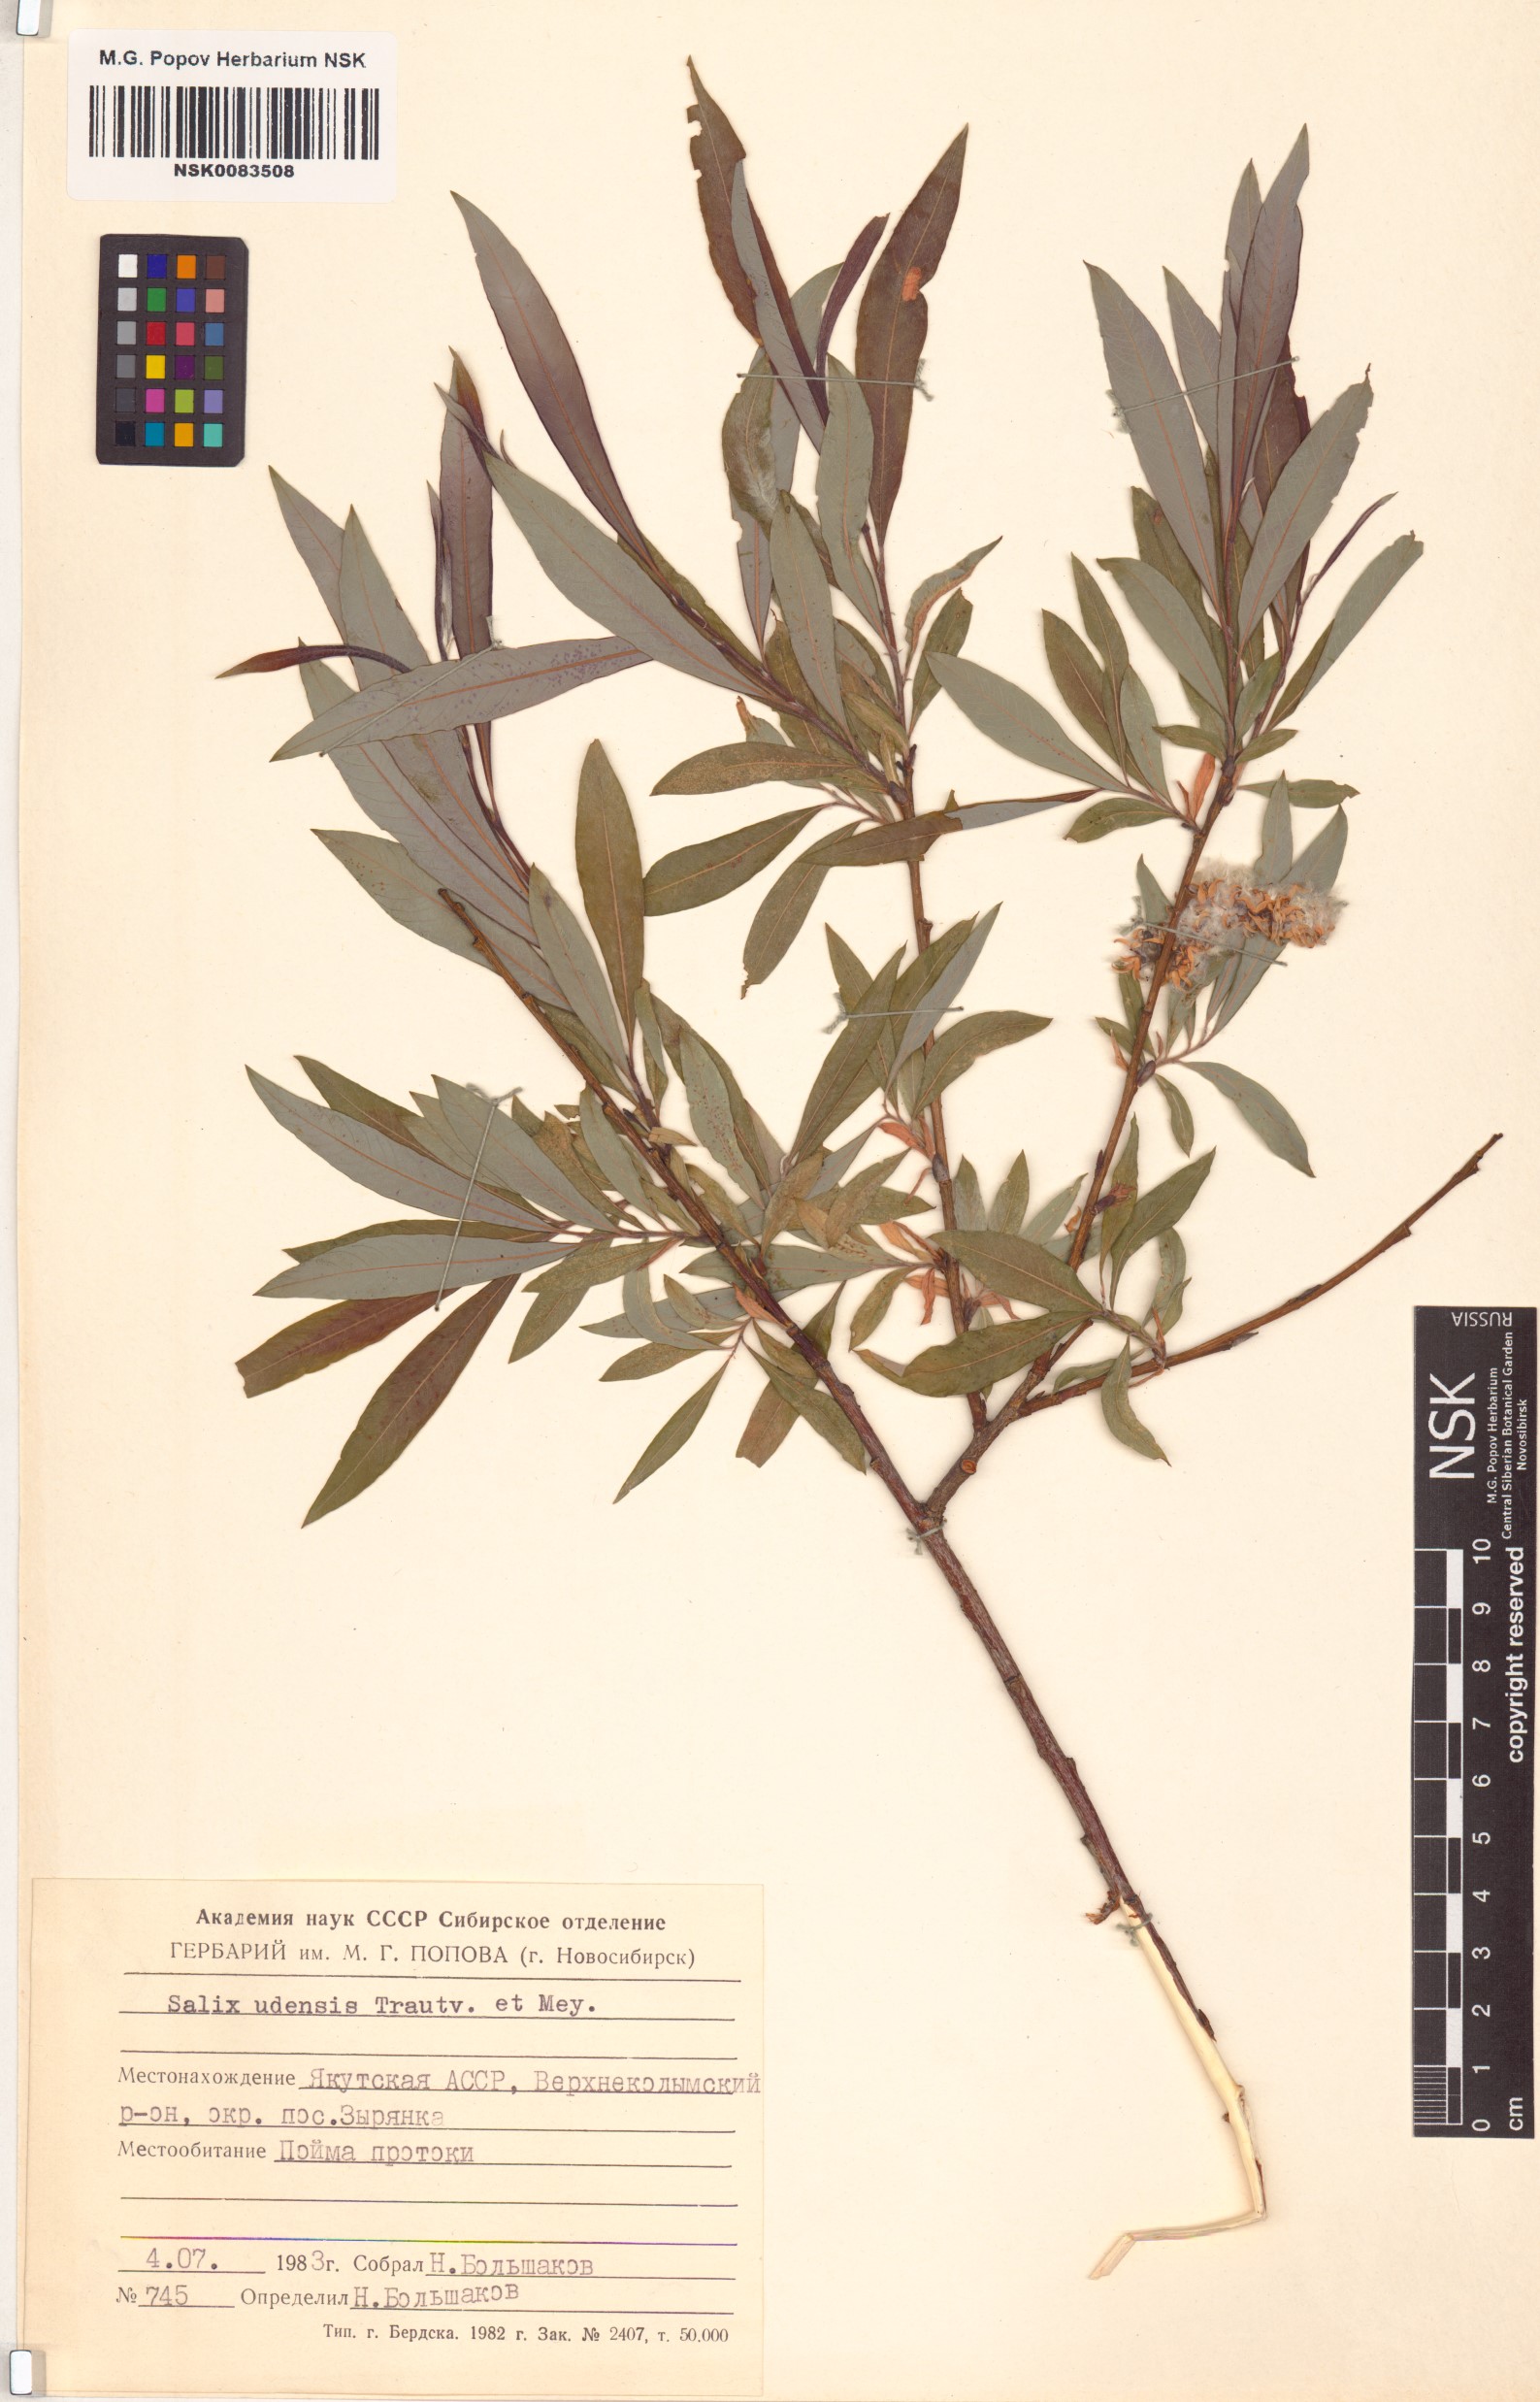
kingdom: Plantae
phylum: Tracheophyta
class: Magnoliopsida
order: Malpighiales
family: Salicaceae
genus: Salix
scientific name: Salix udensis
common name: Sachalin willow
